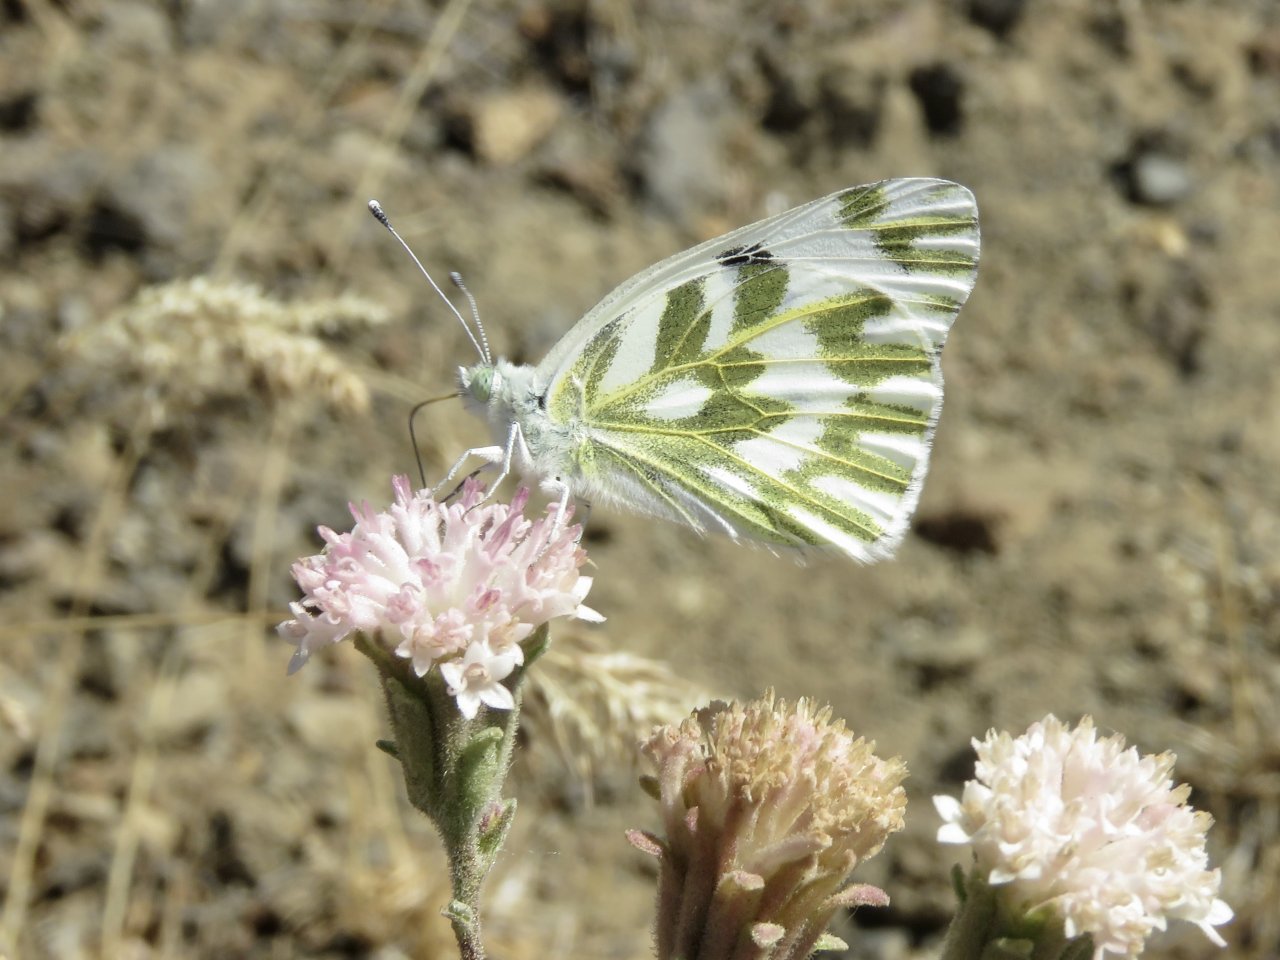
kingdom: Animalia
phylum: Arthropoda
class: Insecta
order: Lepidoptera
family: Pieridae
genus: Pontia
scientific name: Pontia beckerii
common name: Becker's White
